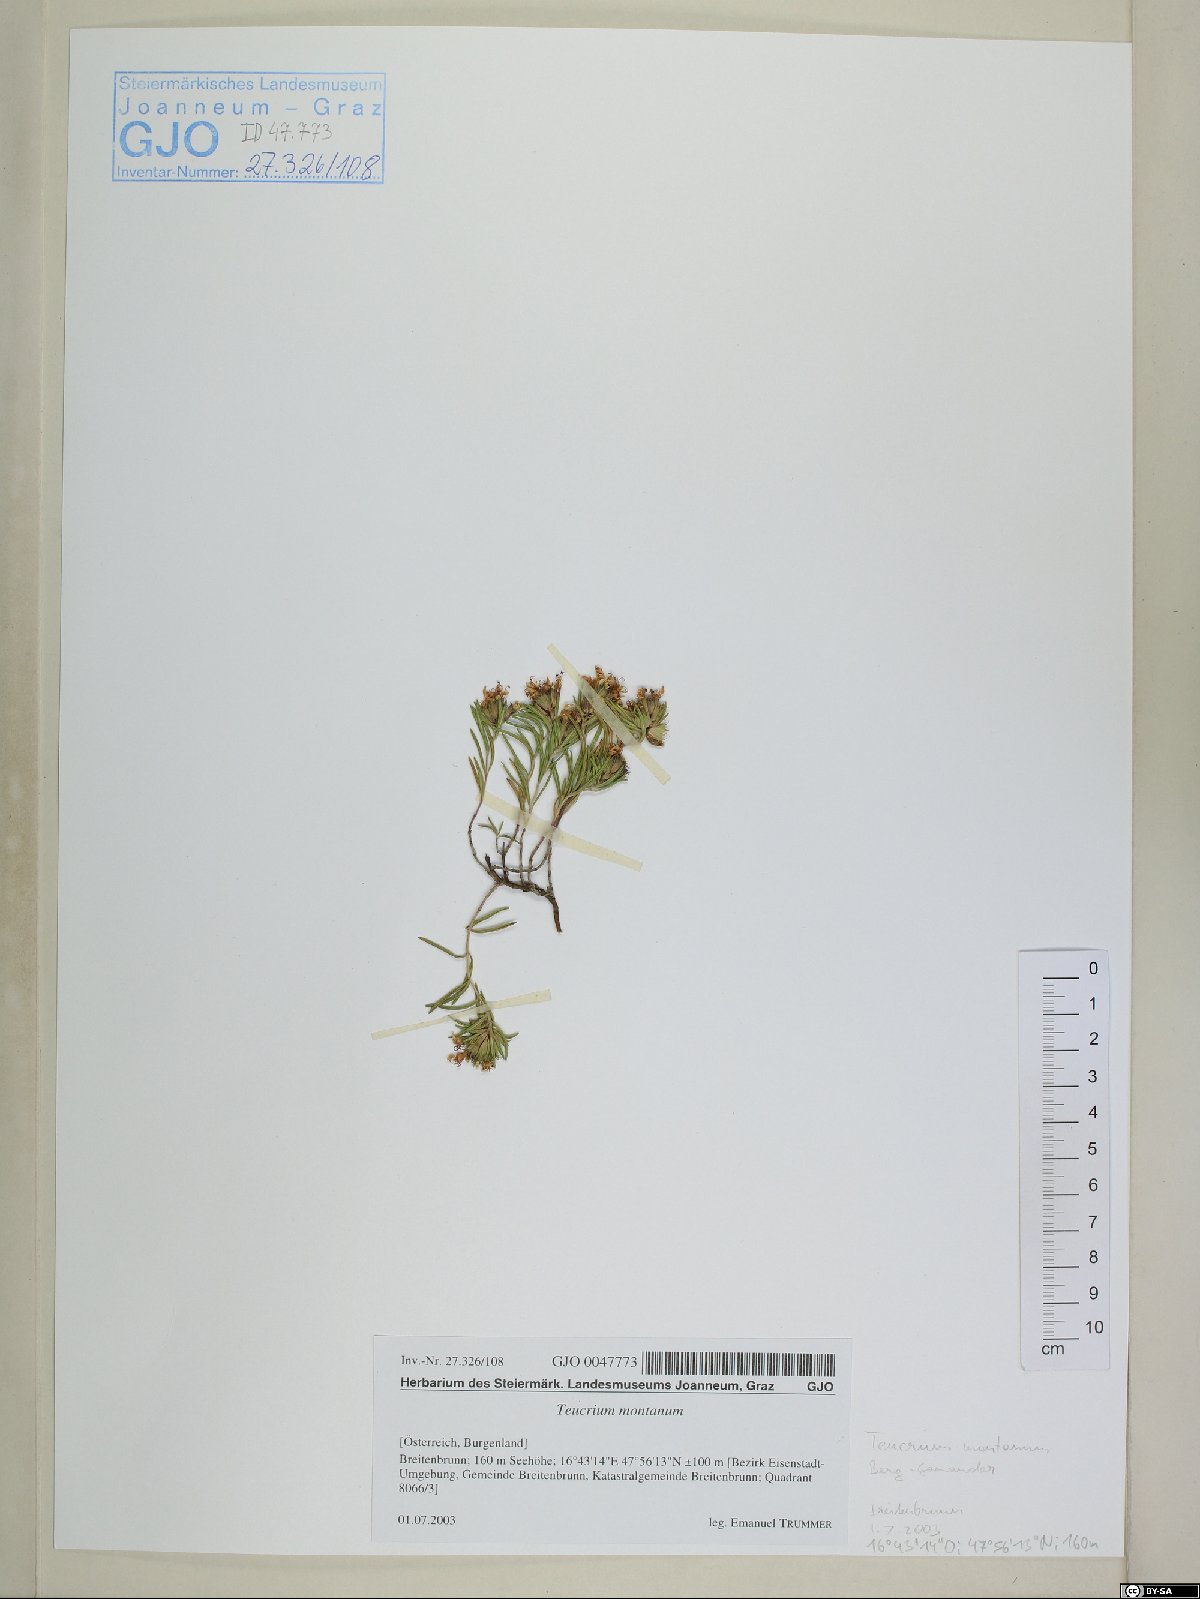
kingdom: Plantae
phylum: Tracheophyta
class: Magnoliopsida
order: Lamiales
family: Lamiaceae
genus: Teucrium
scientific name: Teucrium montanum
